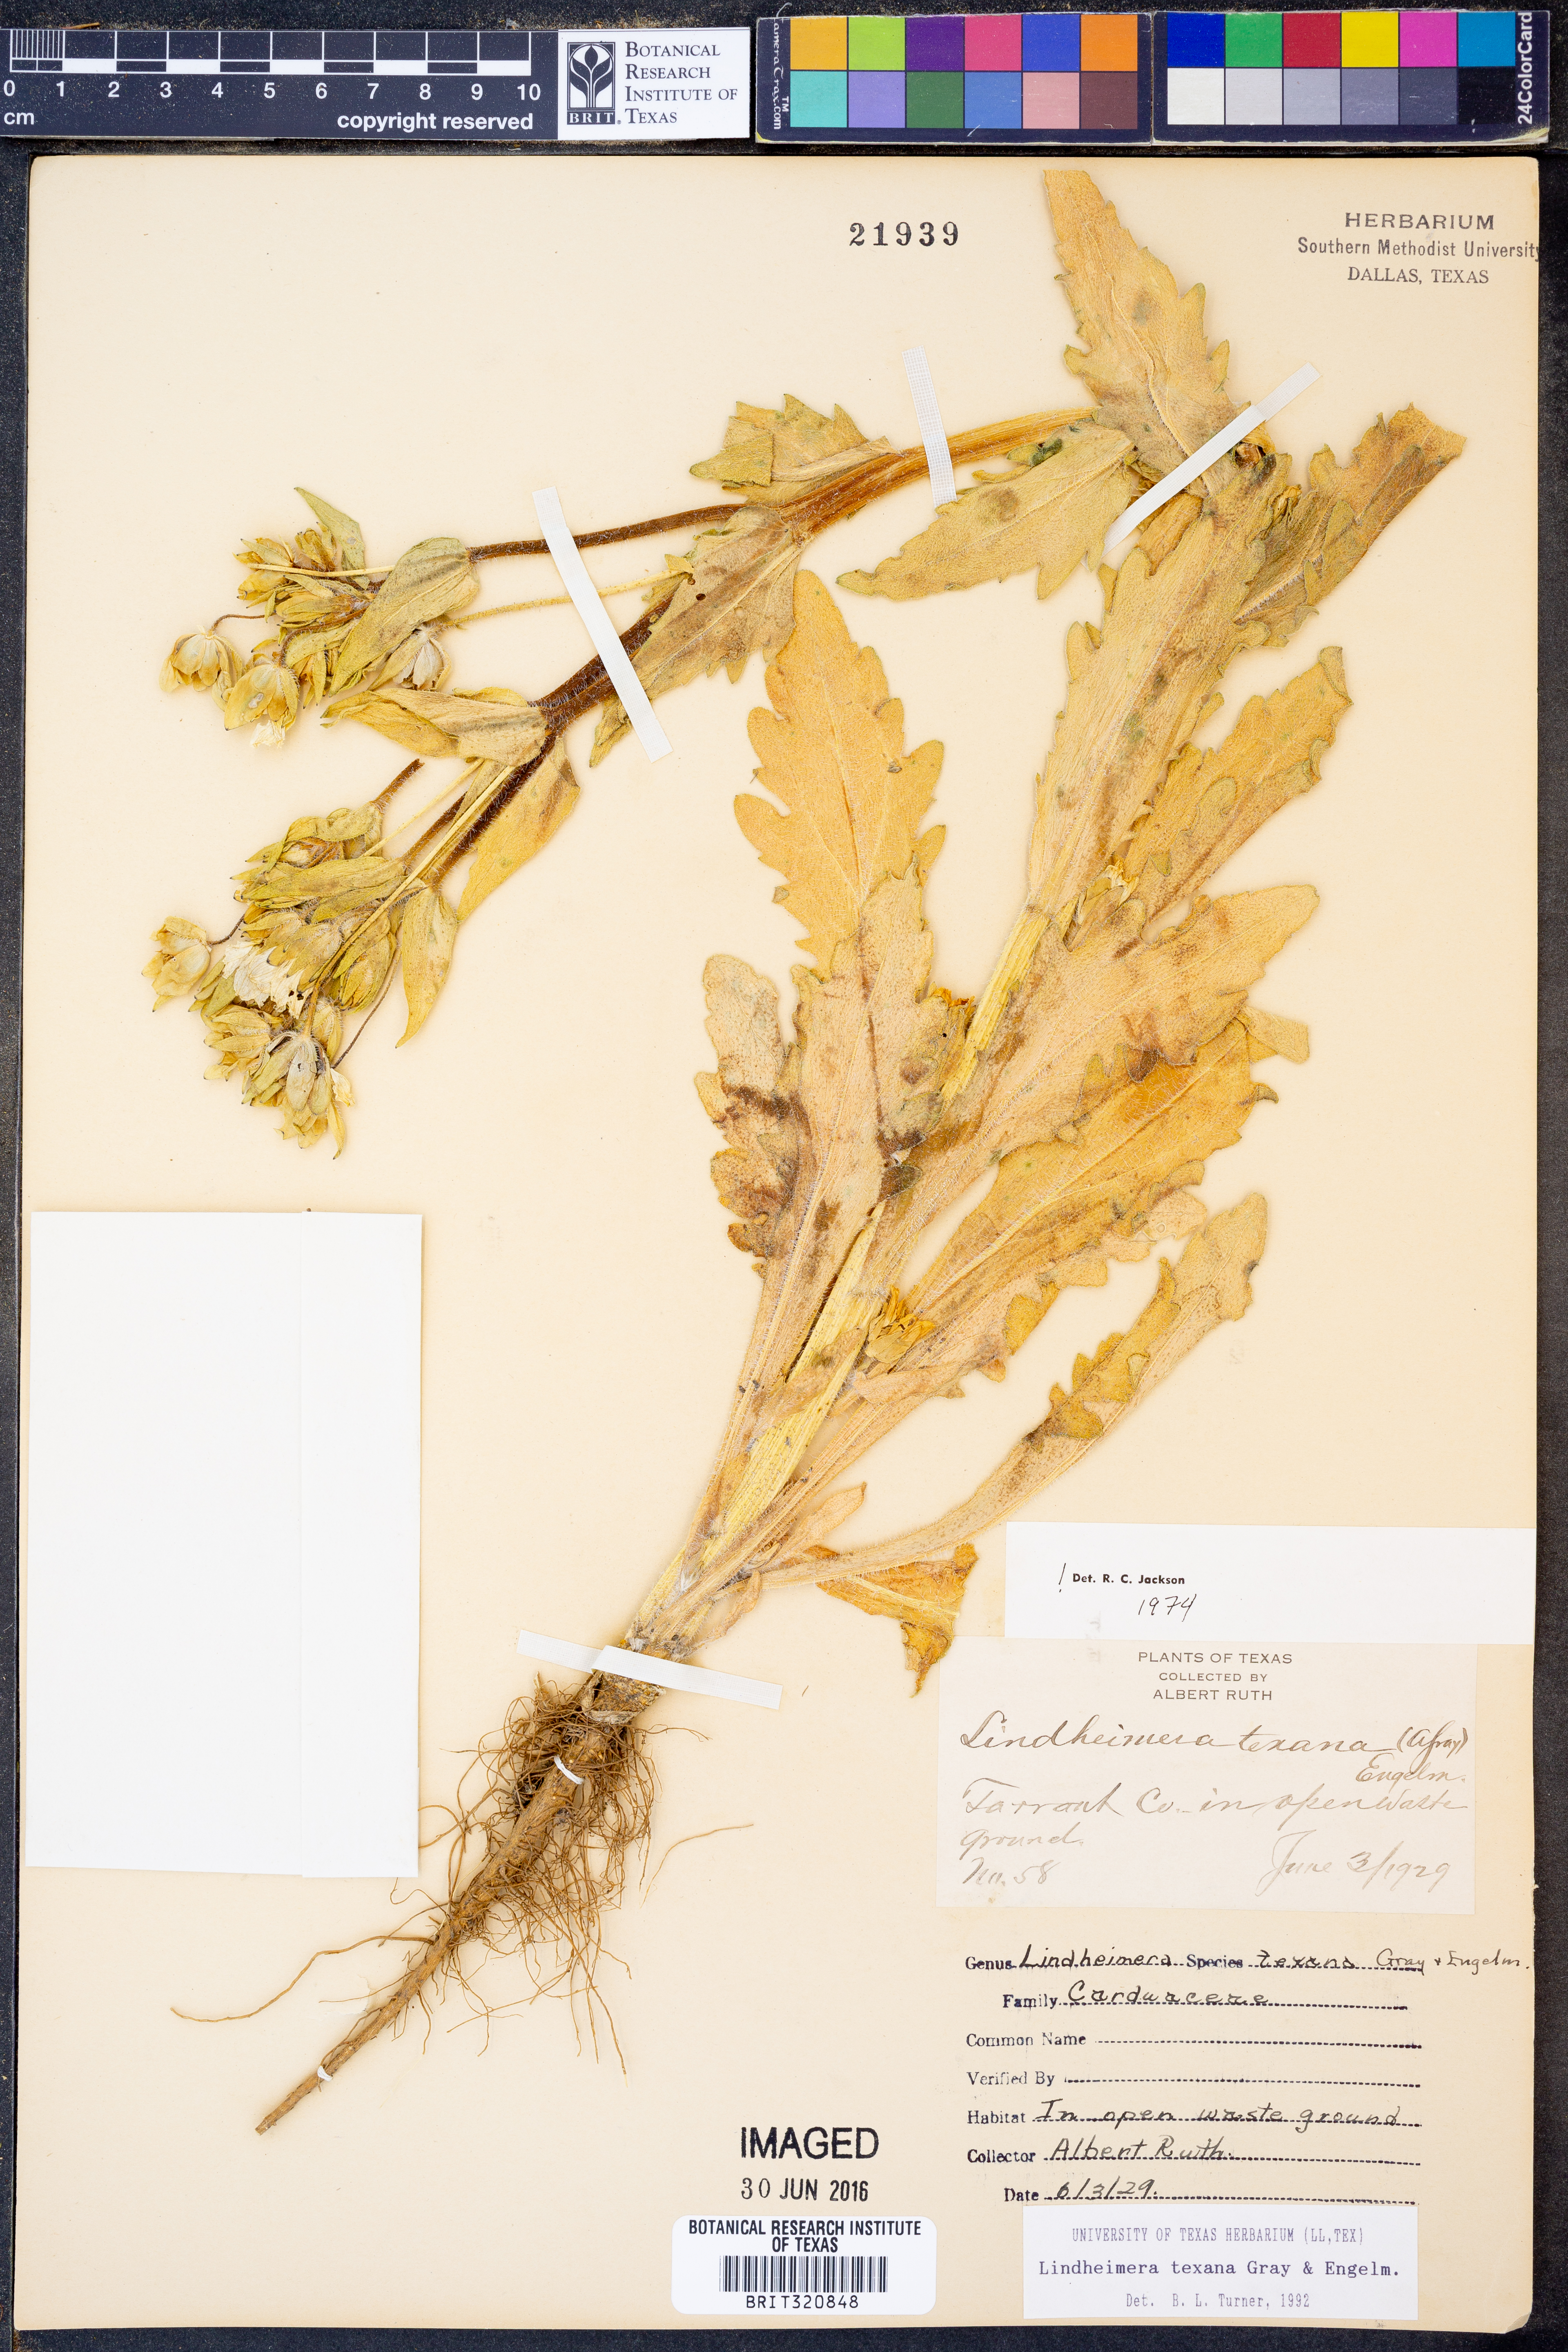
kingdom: Plantae
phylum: Tracheophyta
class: Magnoliopsida
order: Asterales
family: Asteraceae
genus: Lindheimera
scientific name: Lindheimera texana
